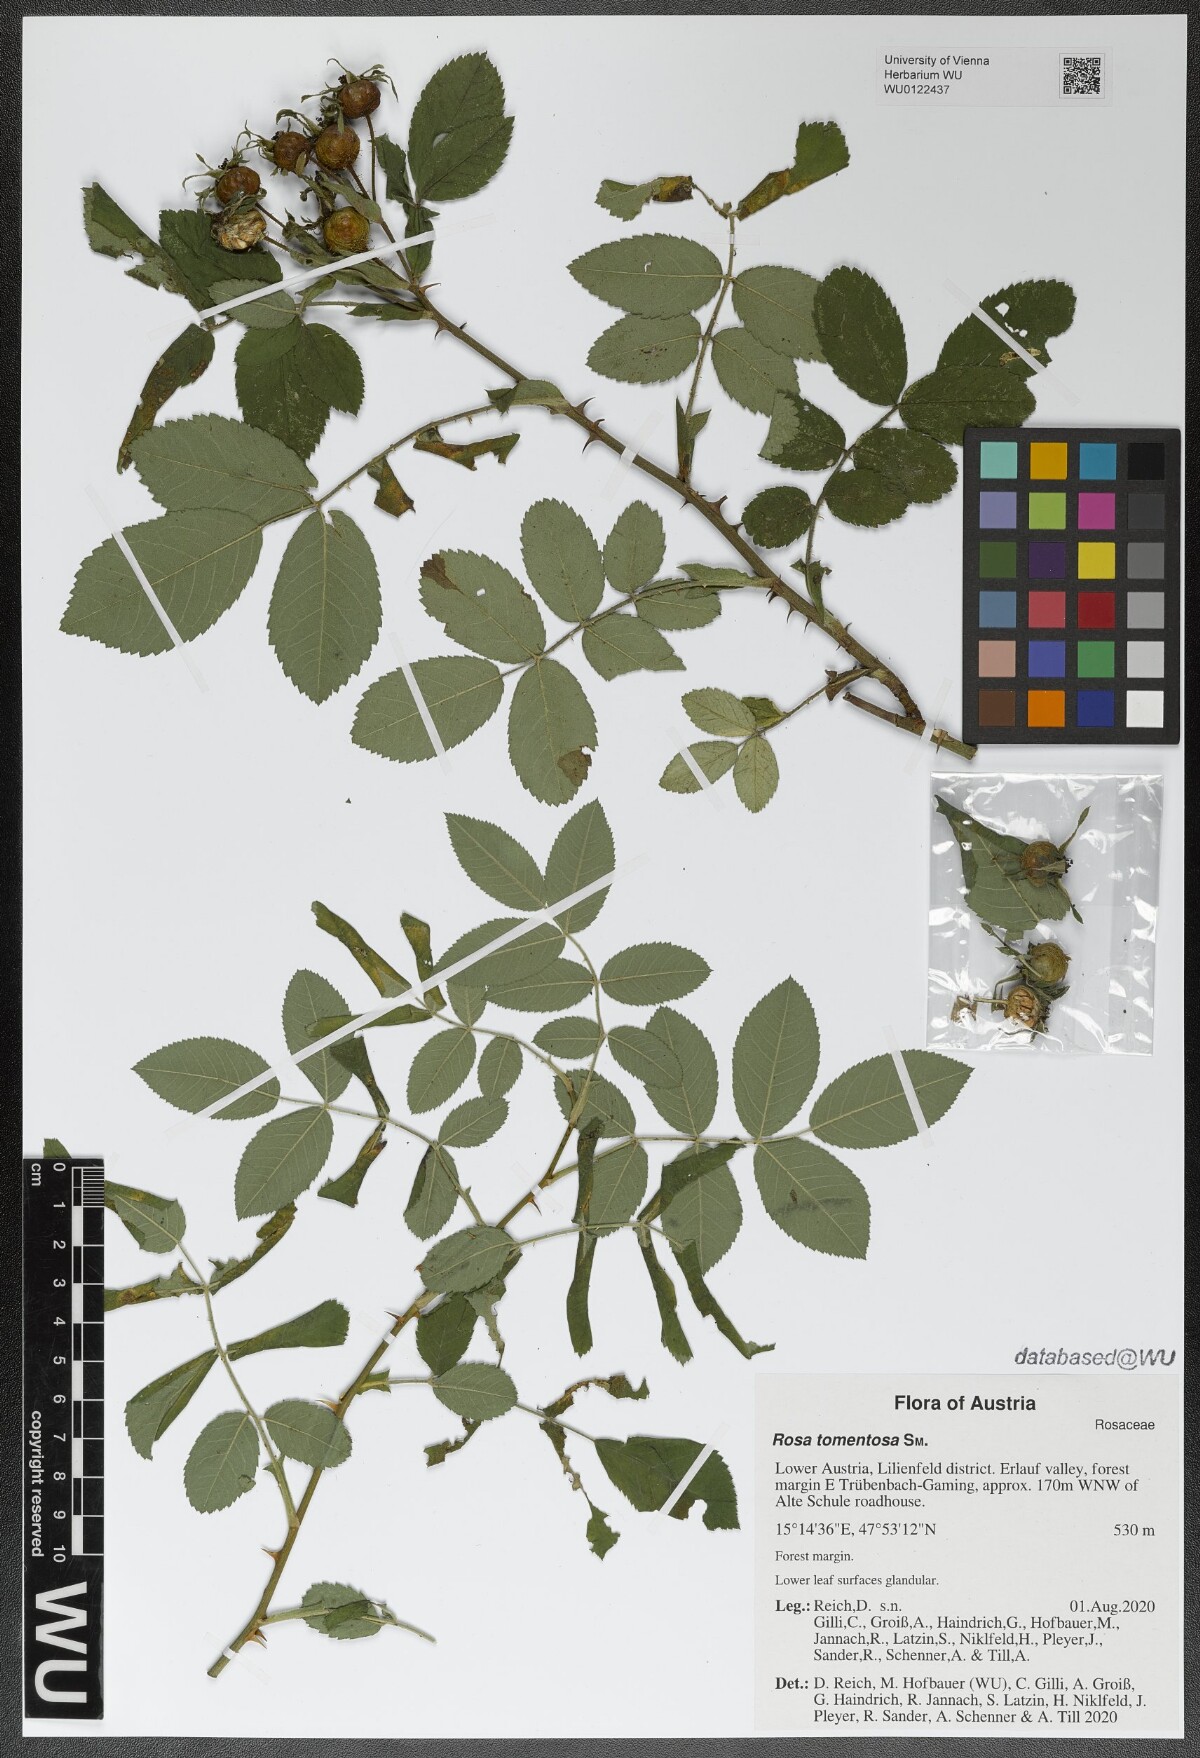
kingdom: Plantae
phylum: Tracheophyta
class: Magnoliopsida
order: Rosales
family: Rosaceae
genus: Rosa
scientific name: Rosa tomentosa
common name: Downy rose
